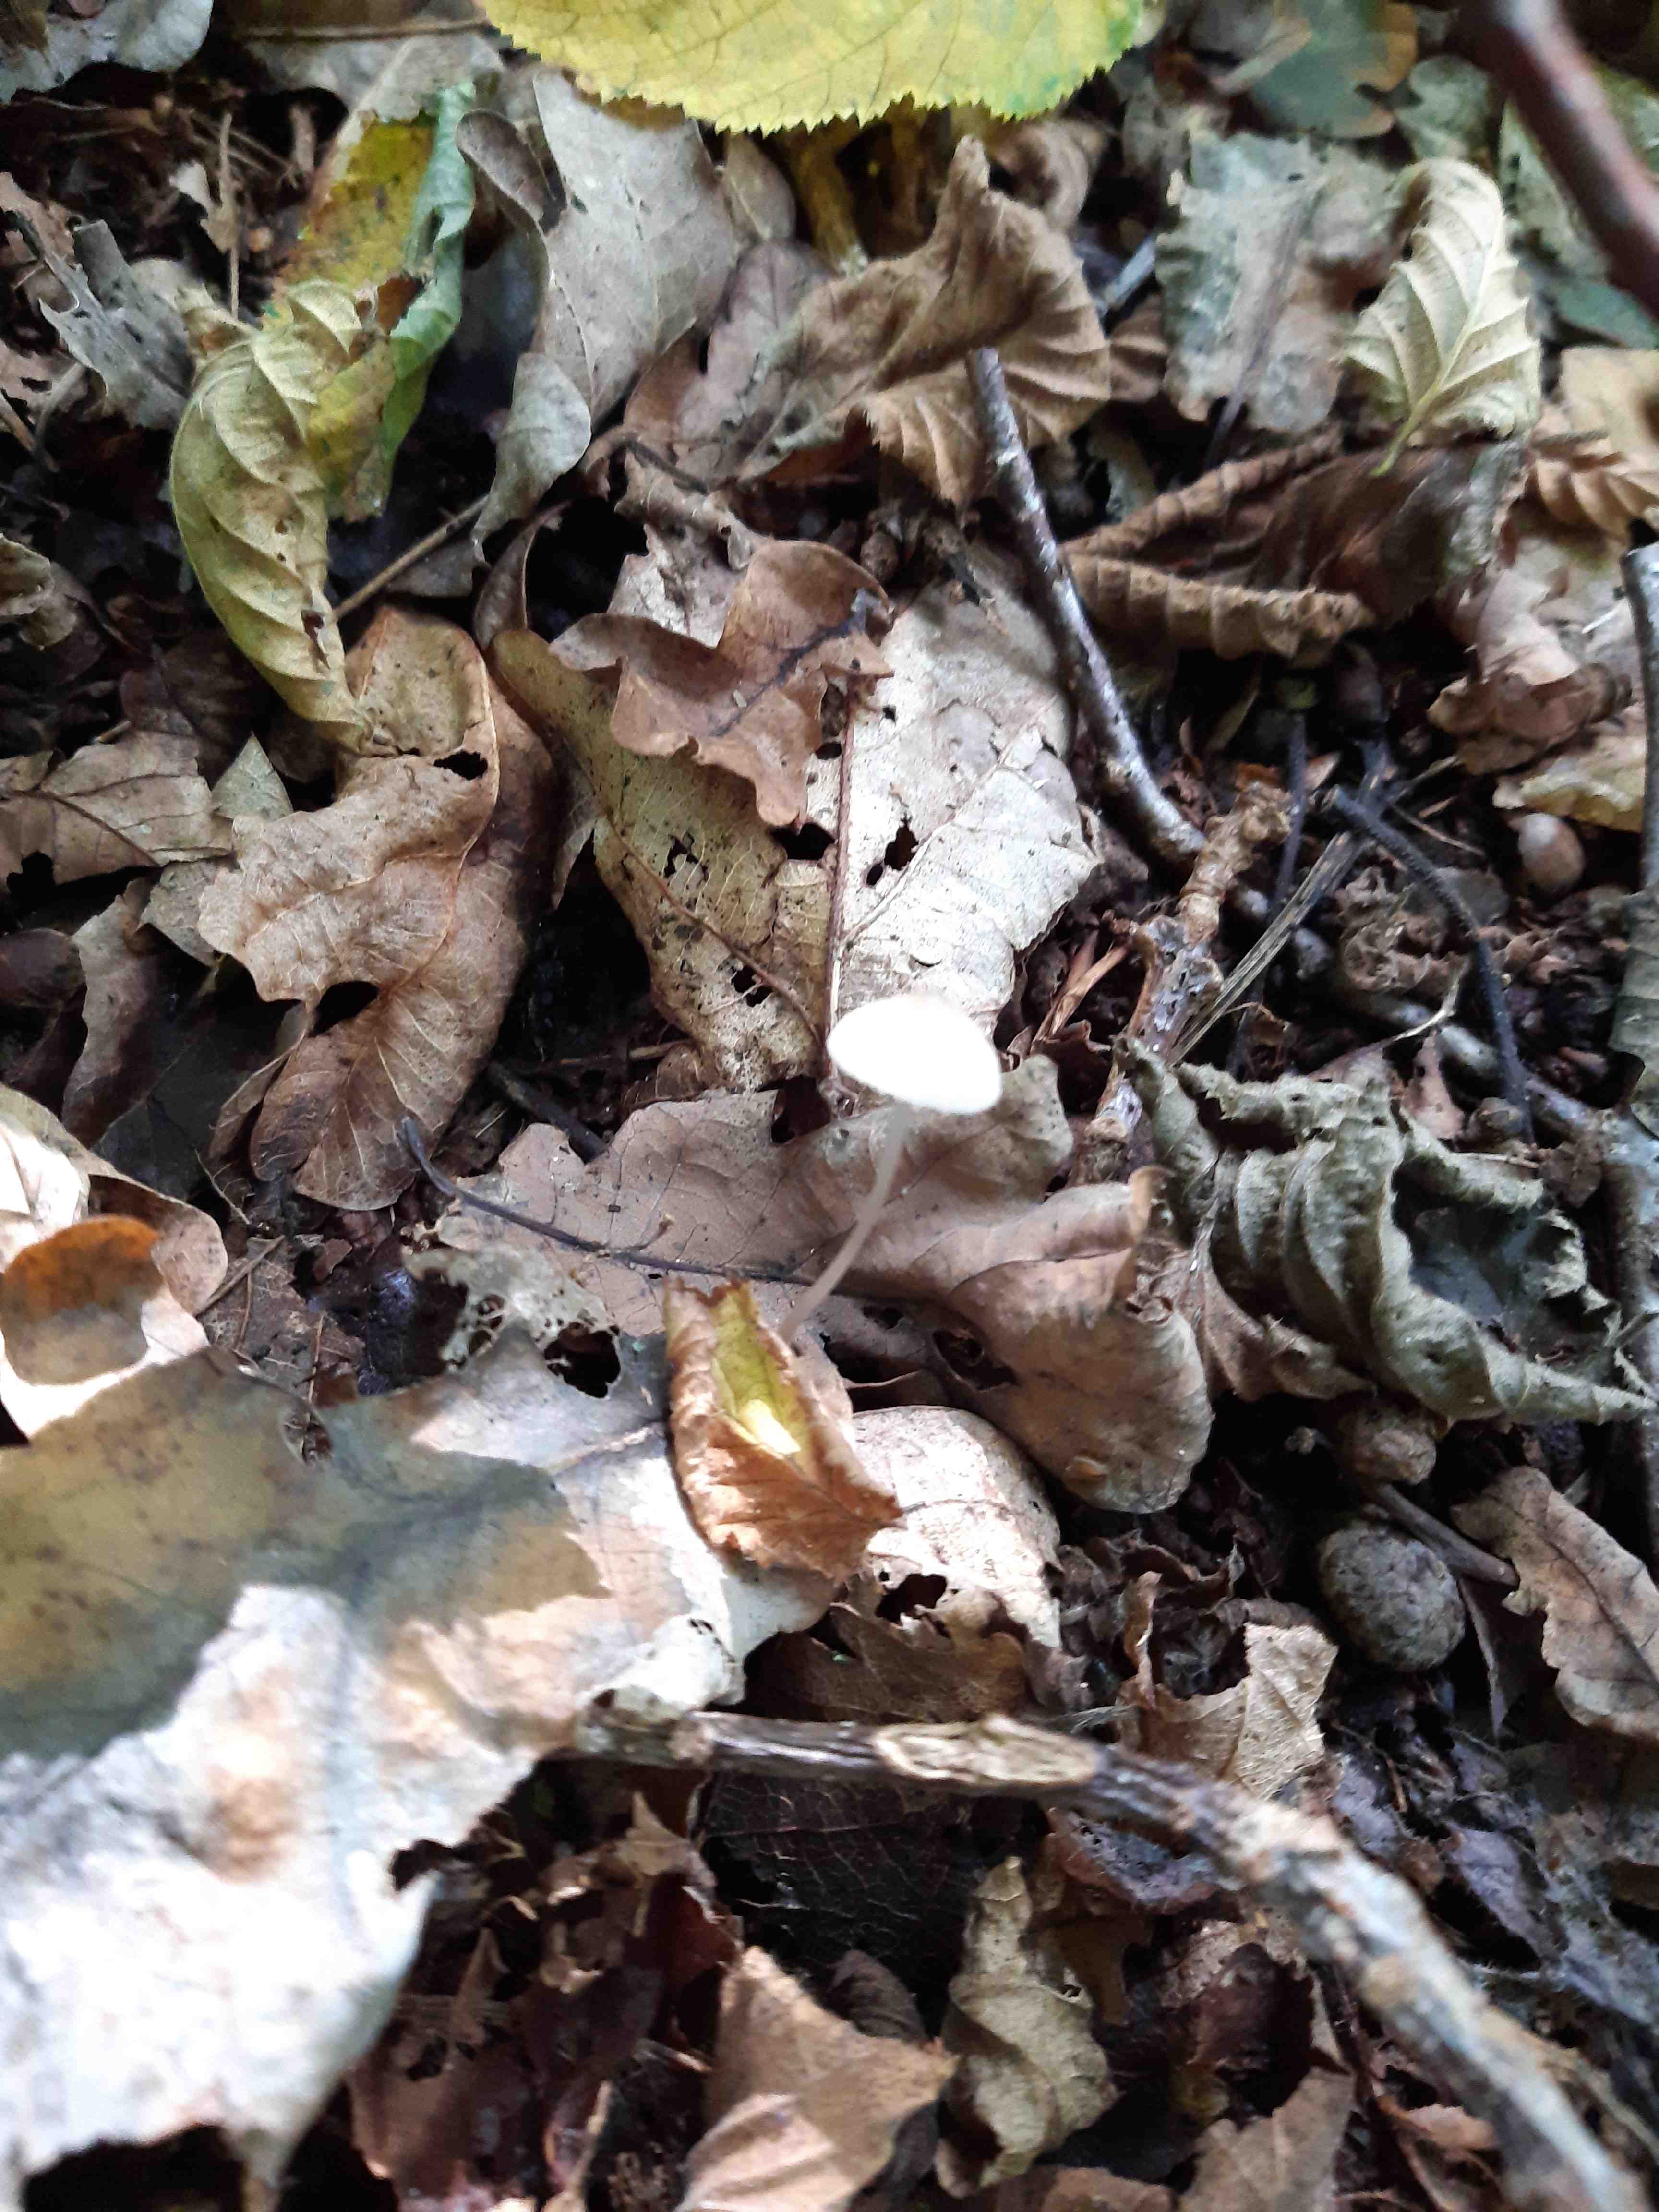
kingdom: Fungi
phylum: Basidiomycota
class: Agaricomycetes
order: Agaricales
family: Mycenaceae
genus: Mycena
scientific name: Mycena
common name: huesvamp
